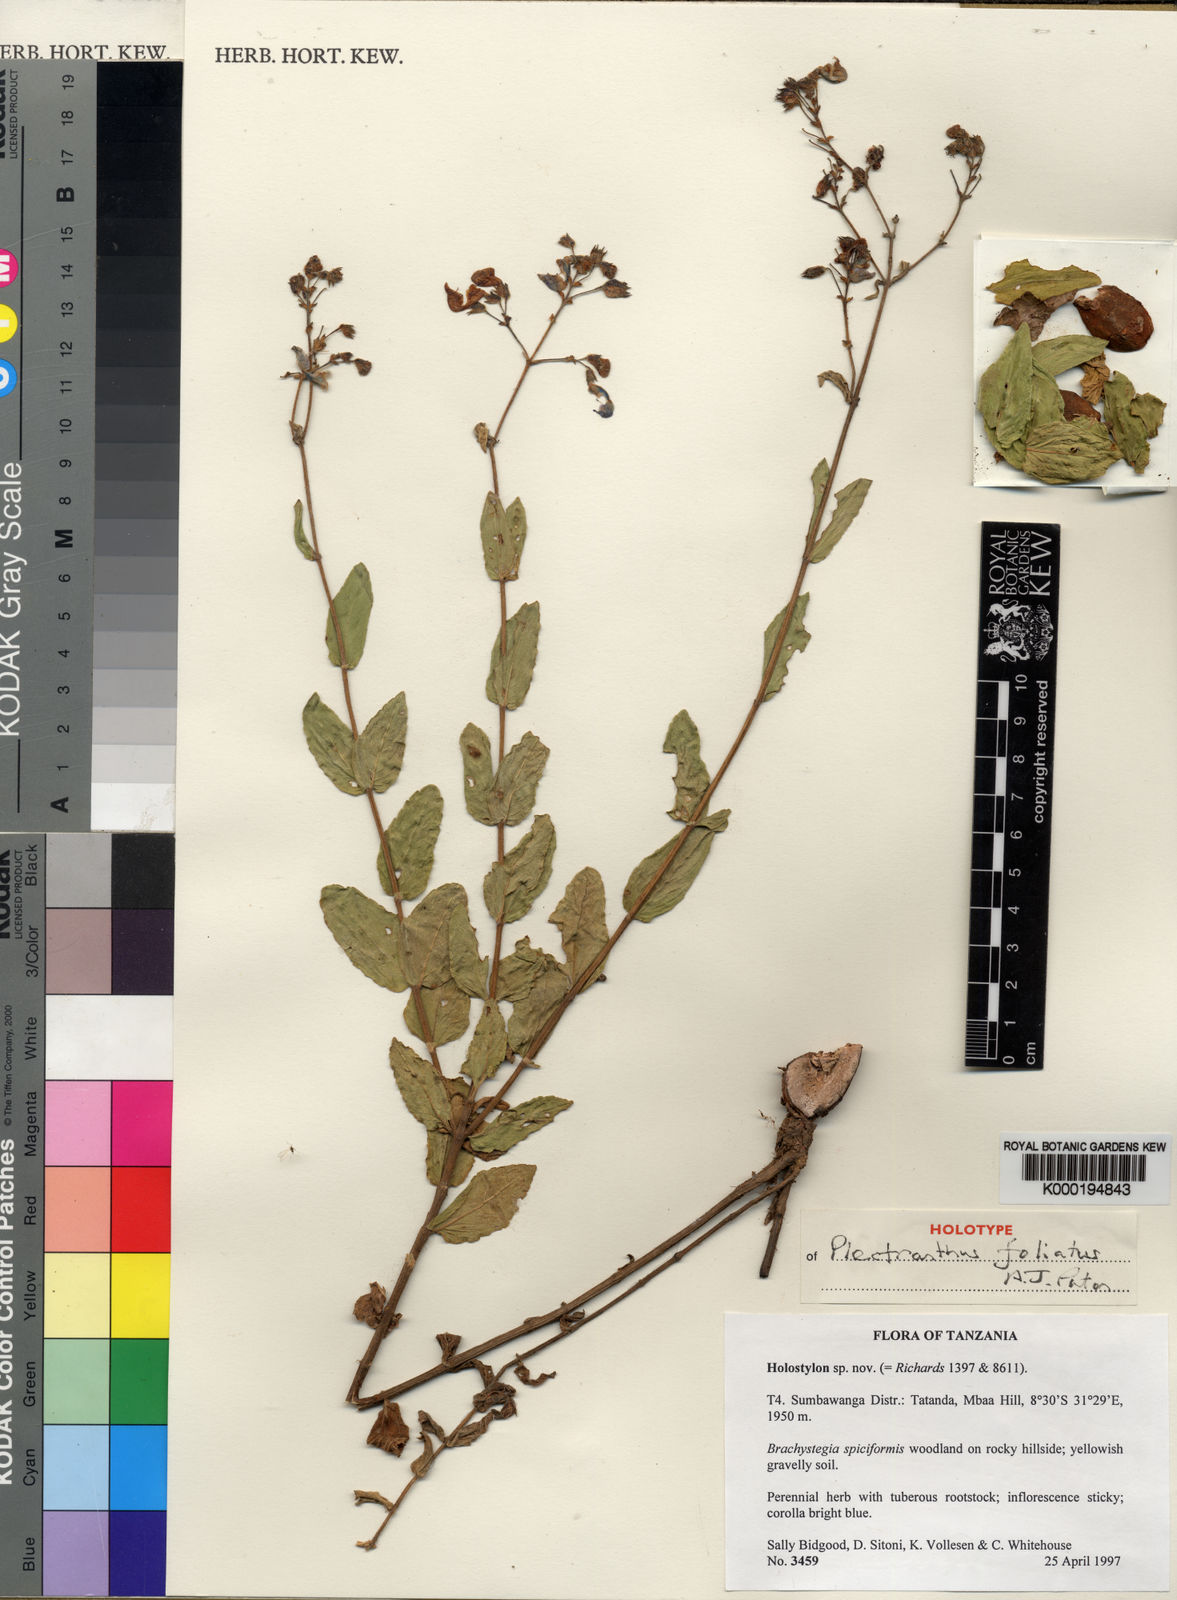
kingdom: Plantae
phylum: Tracheophyta
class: Magnoliopsida
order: Lamiales
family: Lamiaceae
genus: Coleus
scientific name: Coleus foliatus
